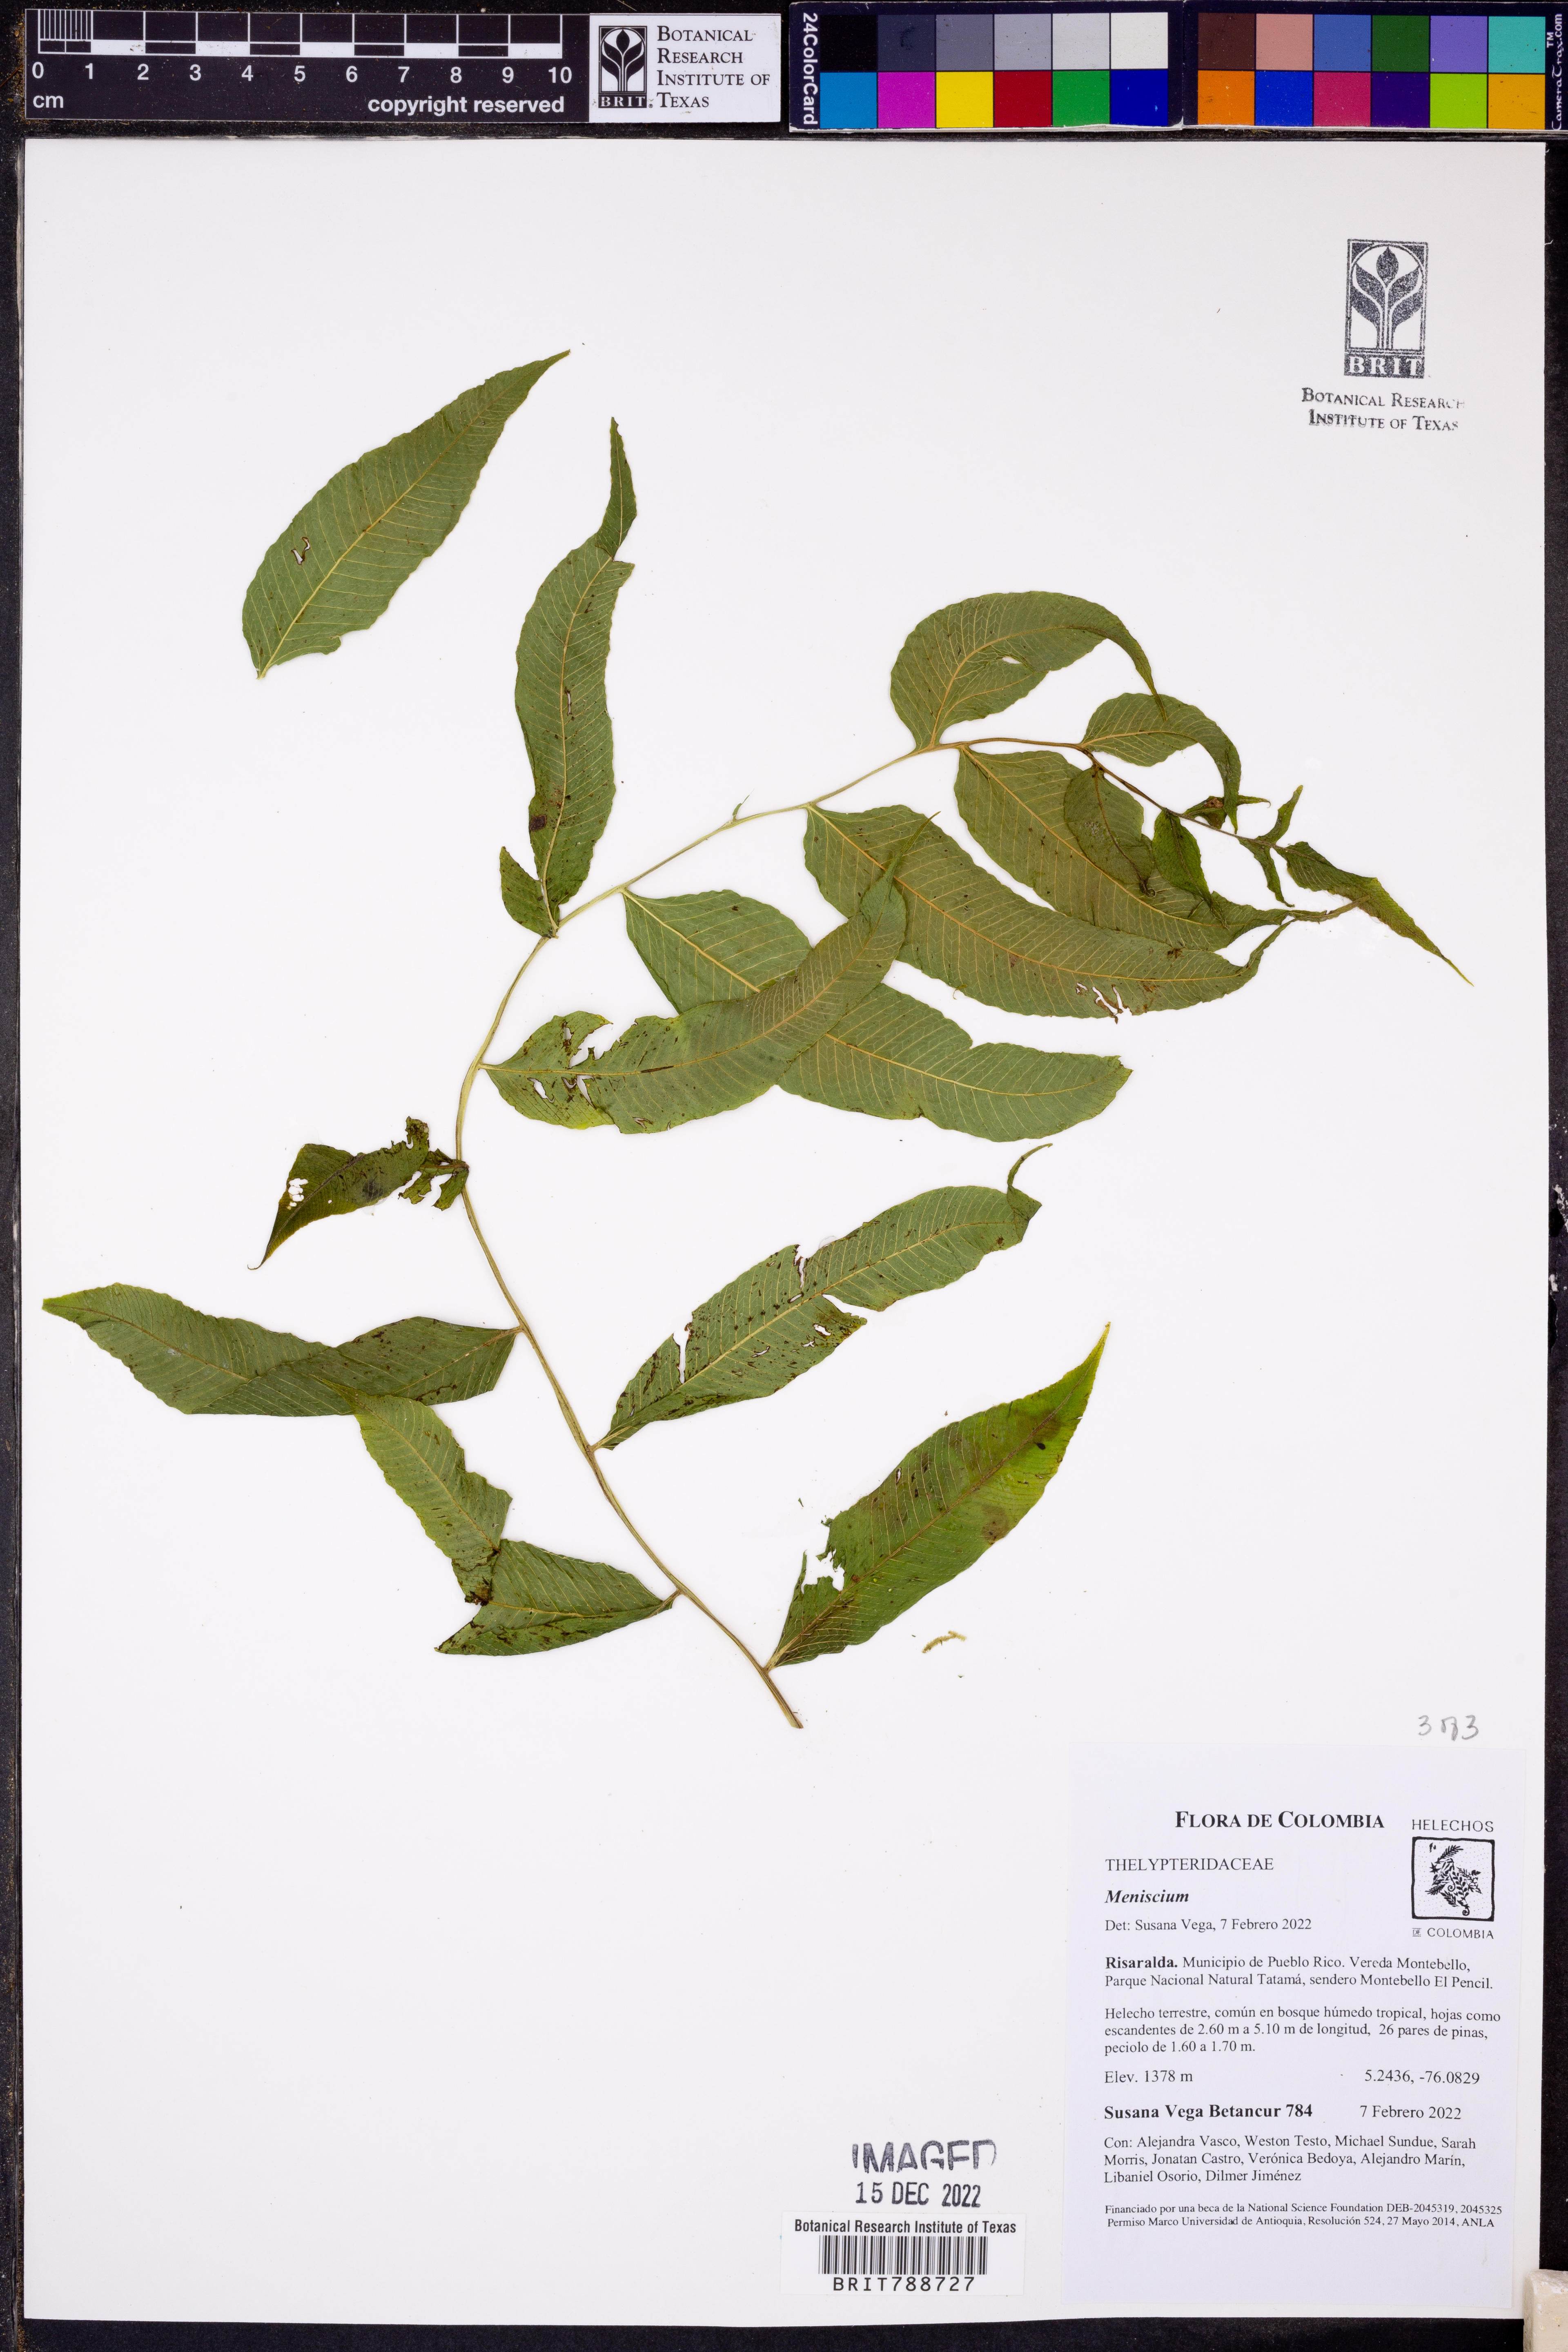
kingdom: Plantae
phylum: Tracheophyta
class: Polypodiopsida
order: Polypodiales
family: Thelypteridaceae
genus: Meniscium
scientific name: Meniscium
